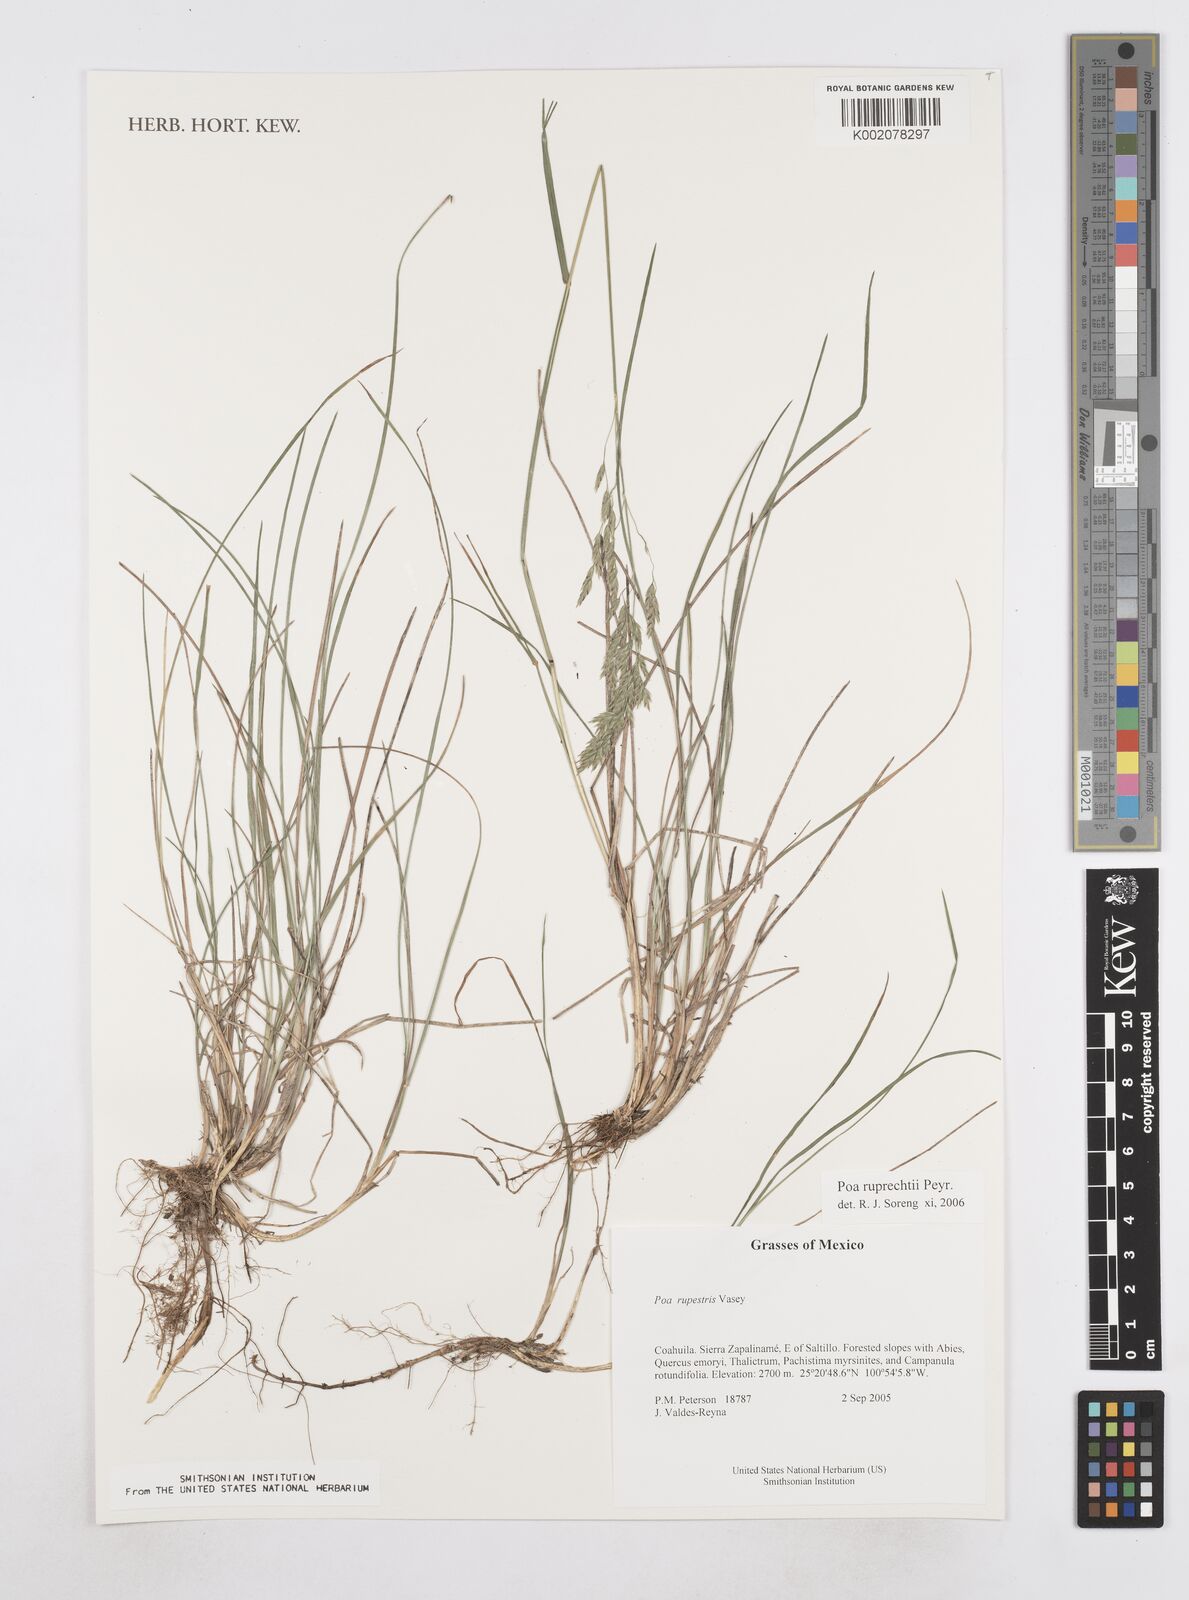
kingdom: Plantae
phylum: Tracheophyta
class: Liliopsida
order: Poales
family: Poaceae
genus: Poa
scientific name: Poa ruprechtii
